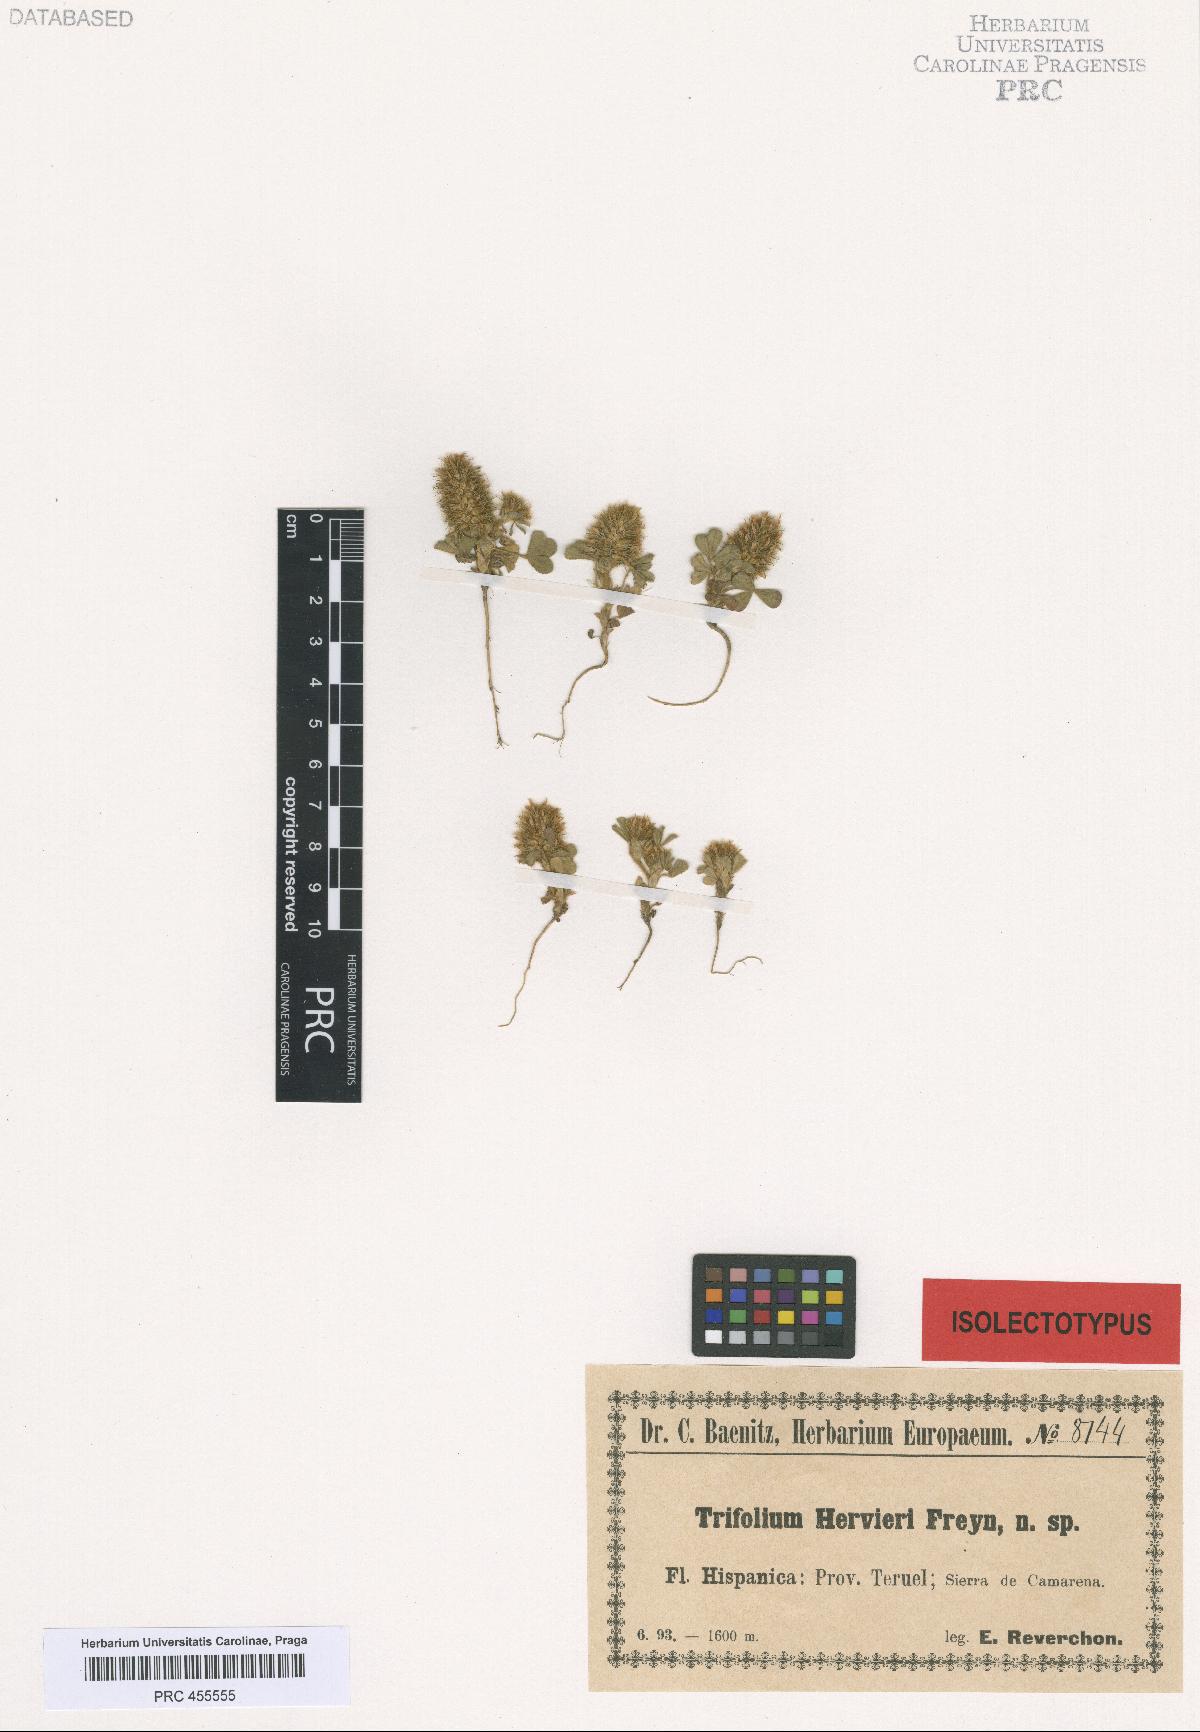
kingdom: Plantae
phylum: Tracheophyta
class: Magnoliopsida
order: Fabales
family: Fabaceae
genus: Trifolium
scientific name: Trifolium sylvaticum
